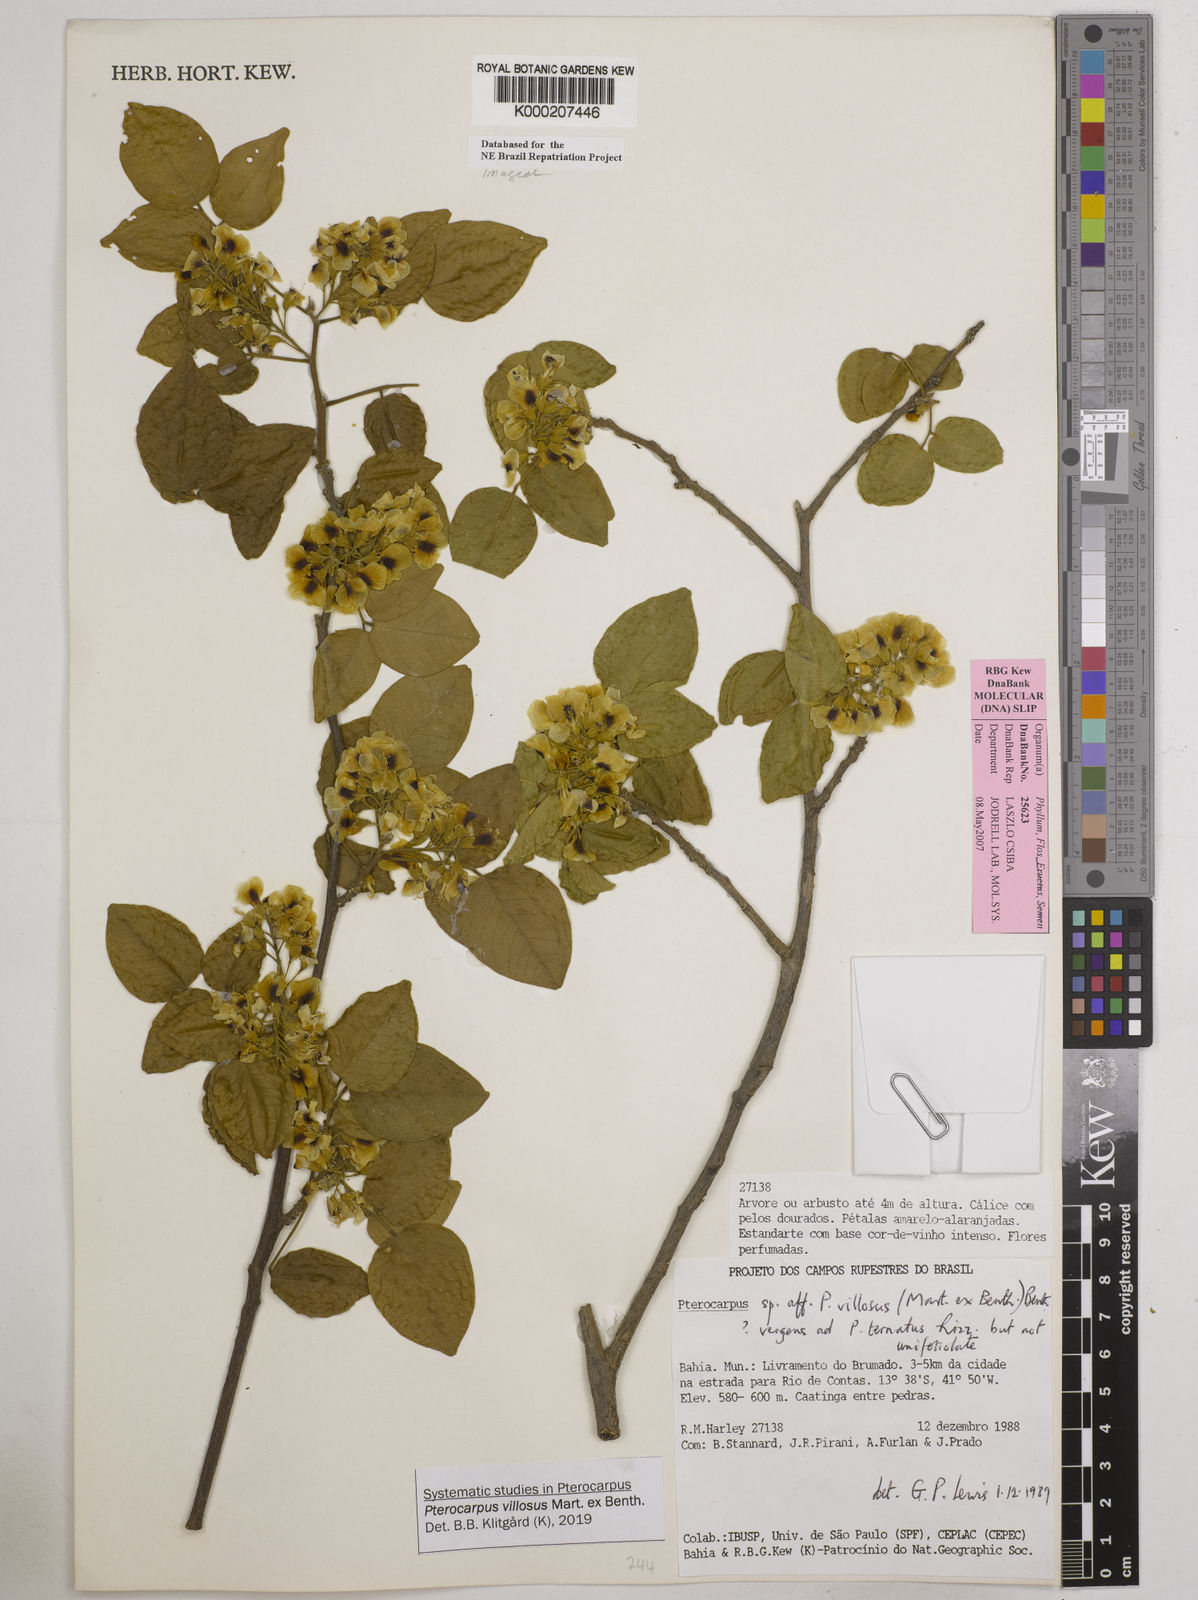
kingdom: Plantae
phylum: Tracheophyta
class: Magnoliopsida
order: Fabales
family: Fabaceae
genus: Pterocarpus
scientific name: Pterocarpus villosus
